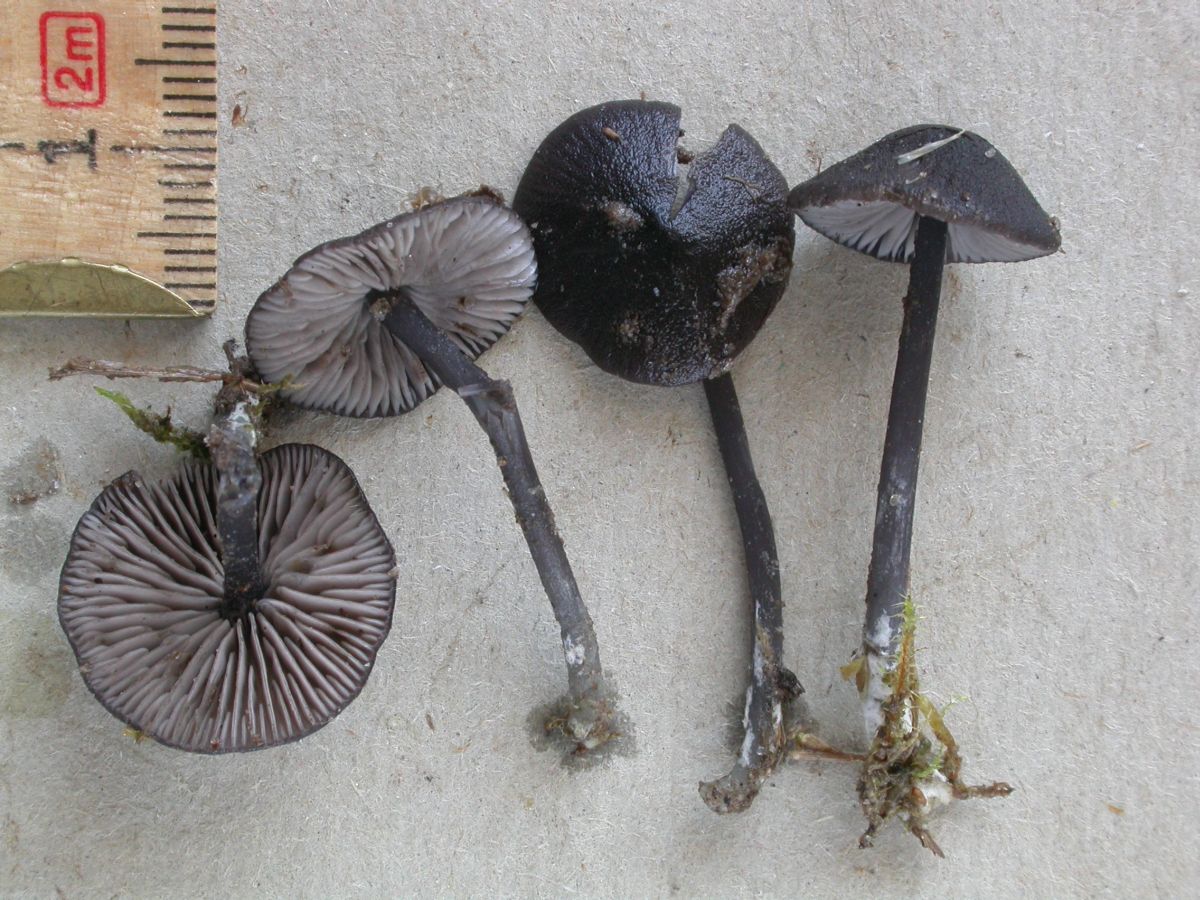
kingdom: Fungi
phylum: Basidiomycota
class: Agaricomycetes
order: Agaricales
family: Entolomataceae
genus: Entoloma
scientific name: Entoloma chalybeum
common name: blåbladet rødblad
